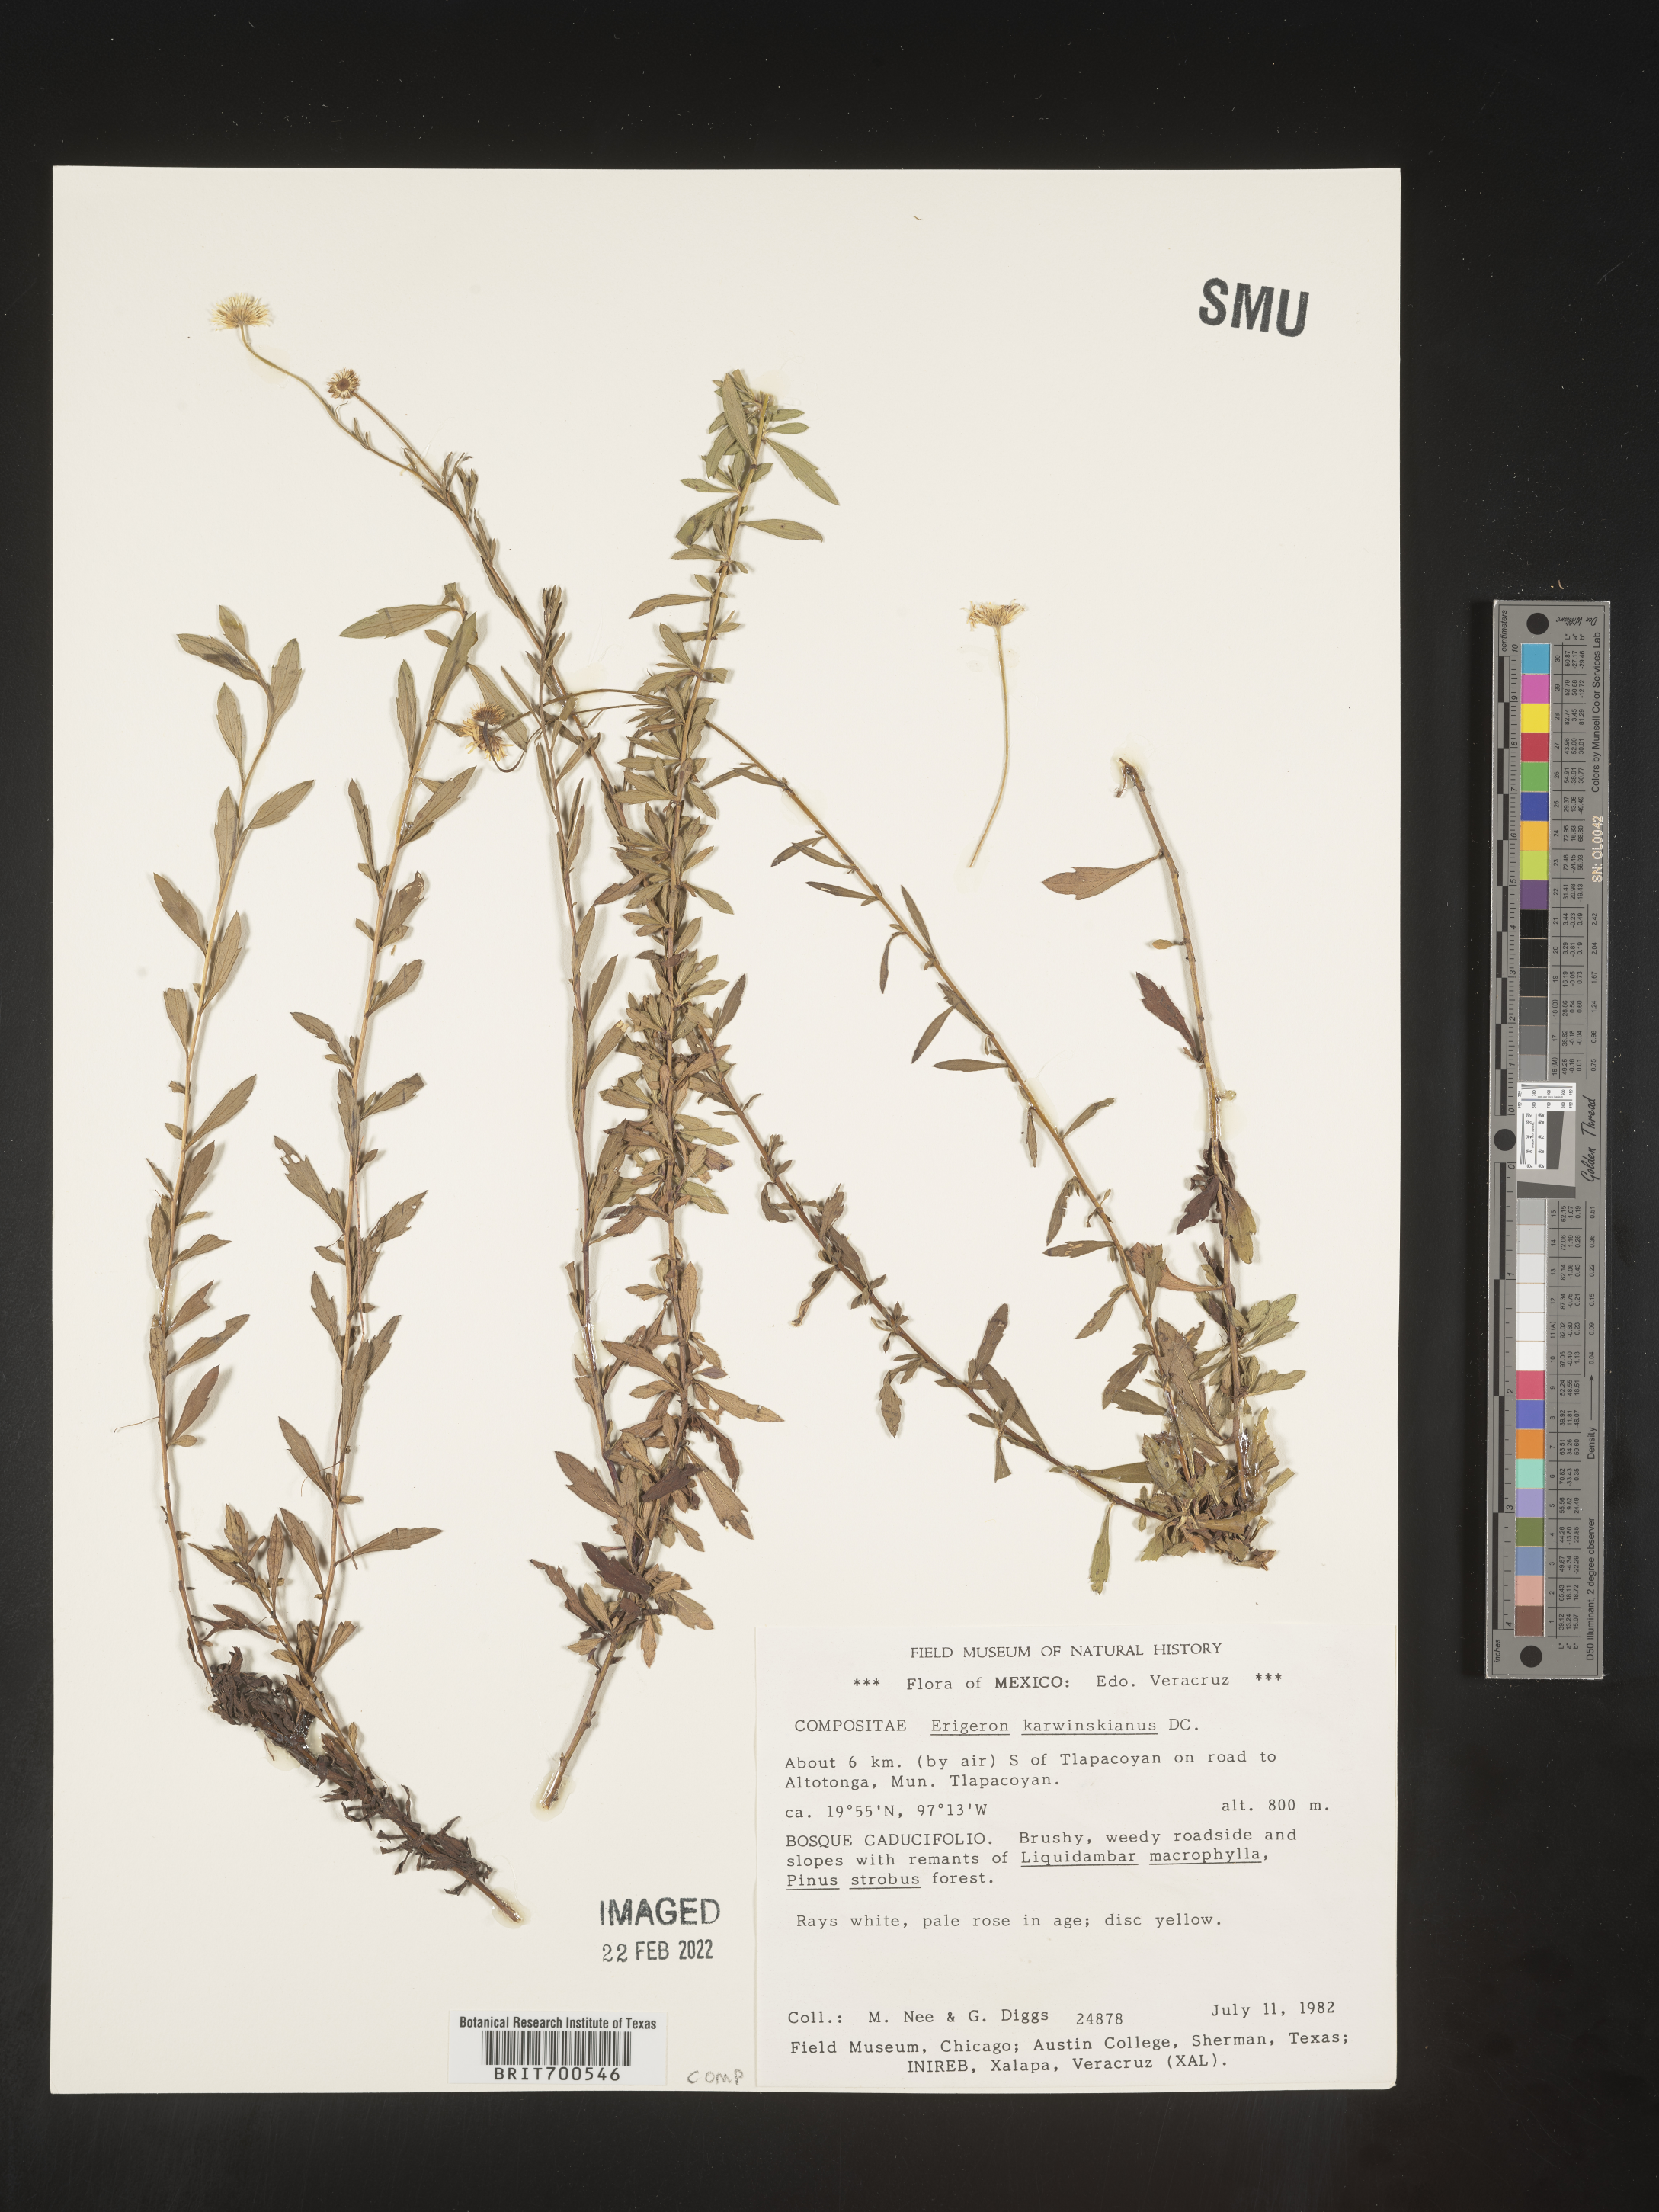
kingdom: Plantae
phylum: Tracheophyta
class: Magnoliopsida
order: Asterales
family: Asteraceae
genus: Erigeron
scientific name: Erigeron karvinskianus
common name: Mexican fleabane
